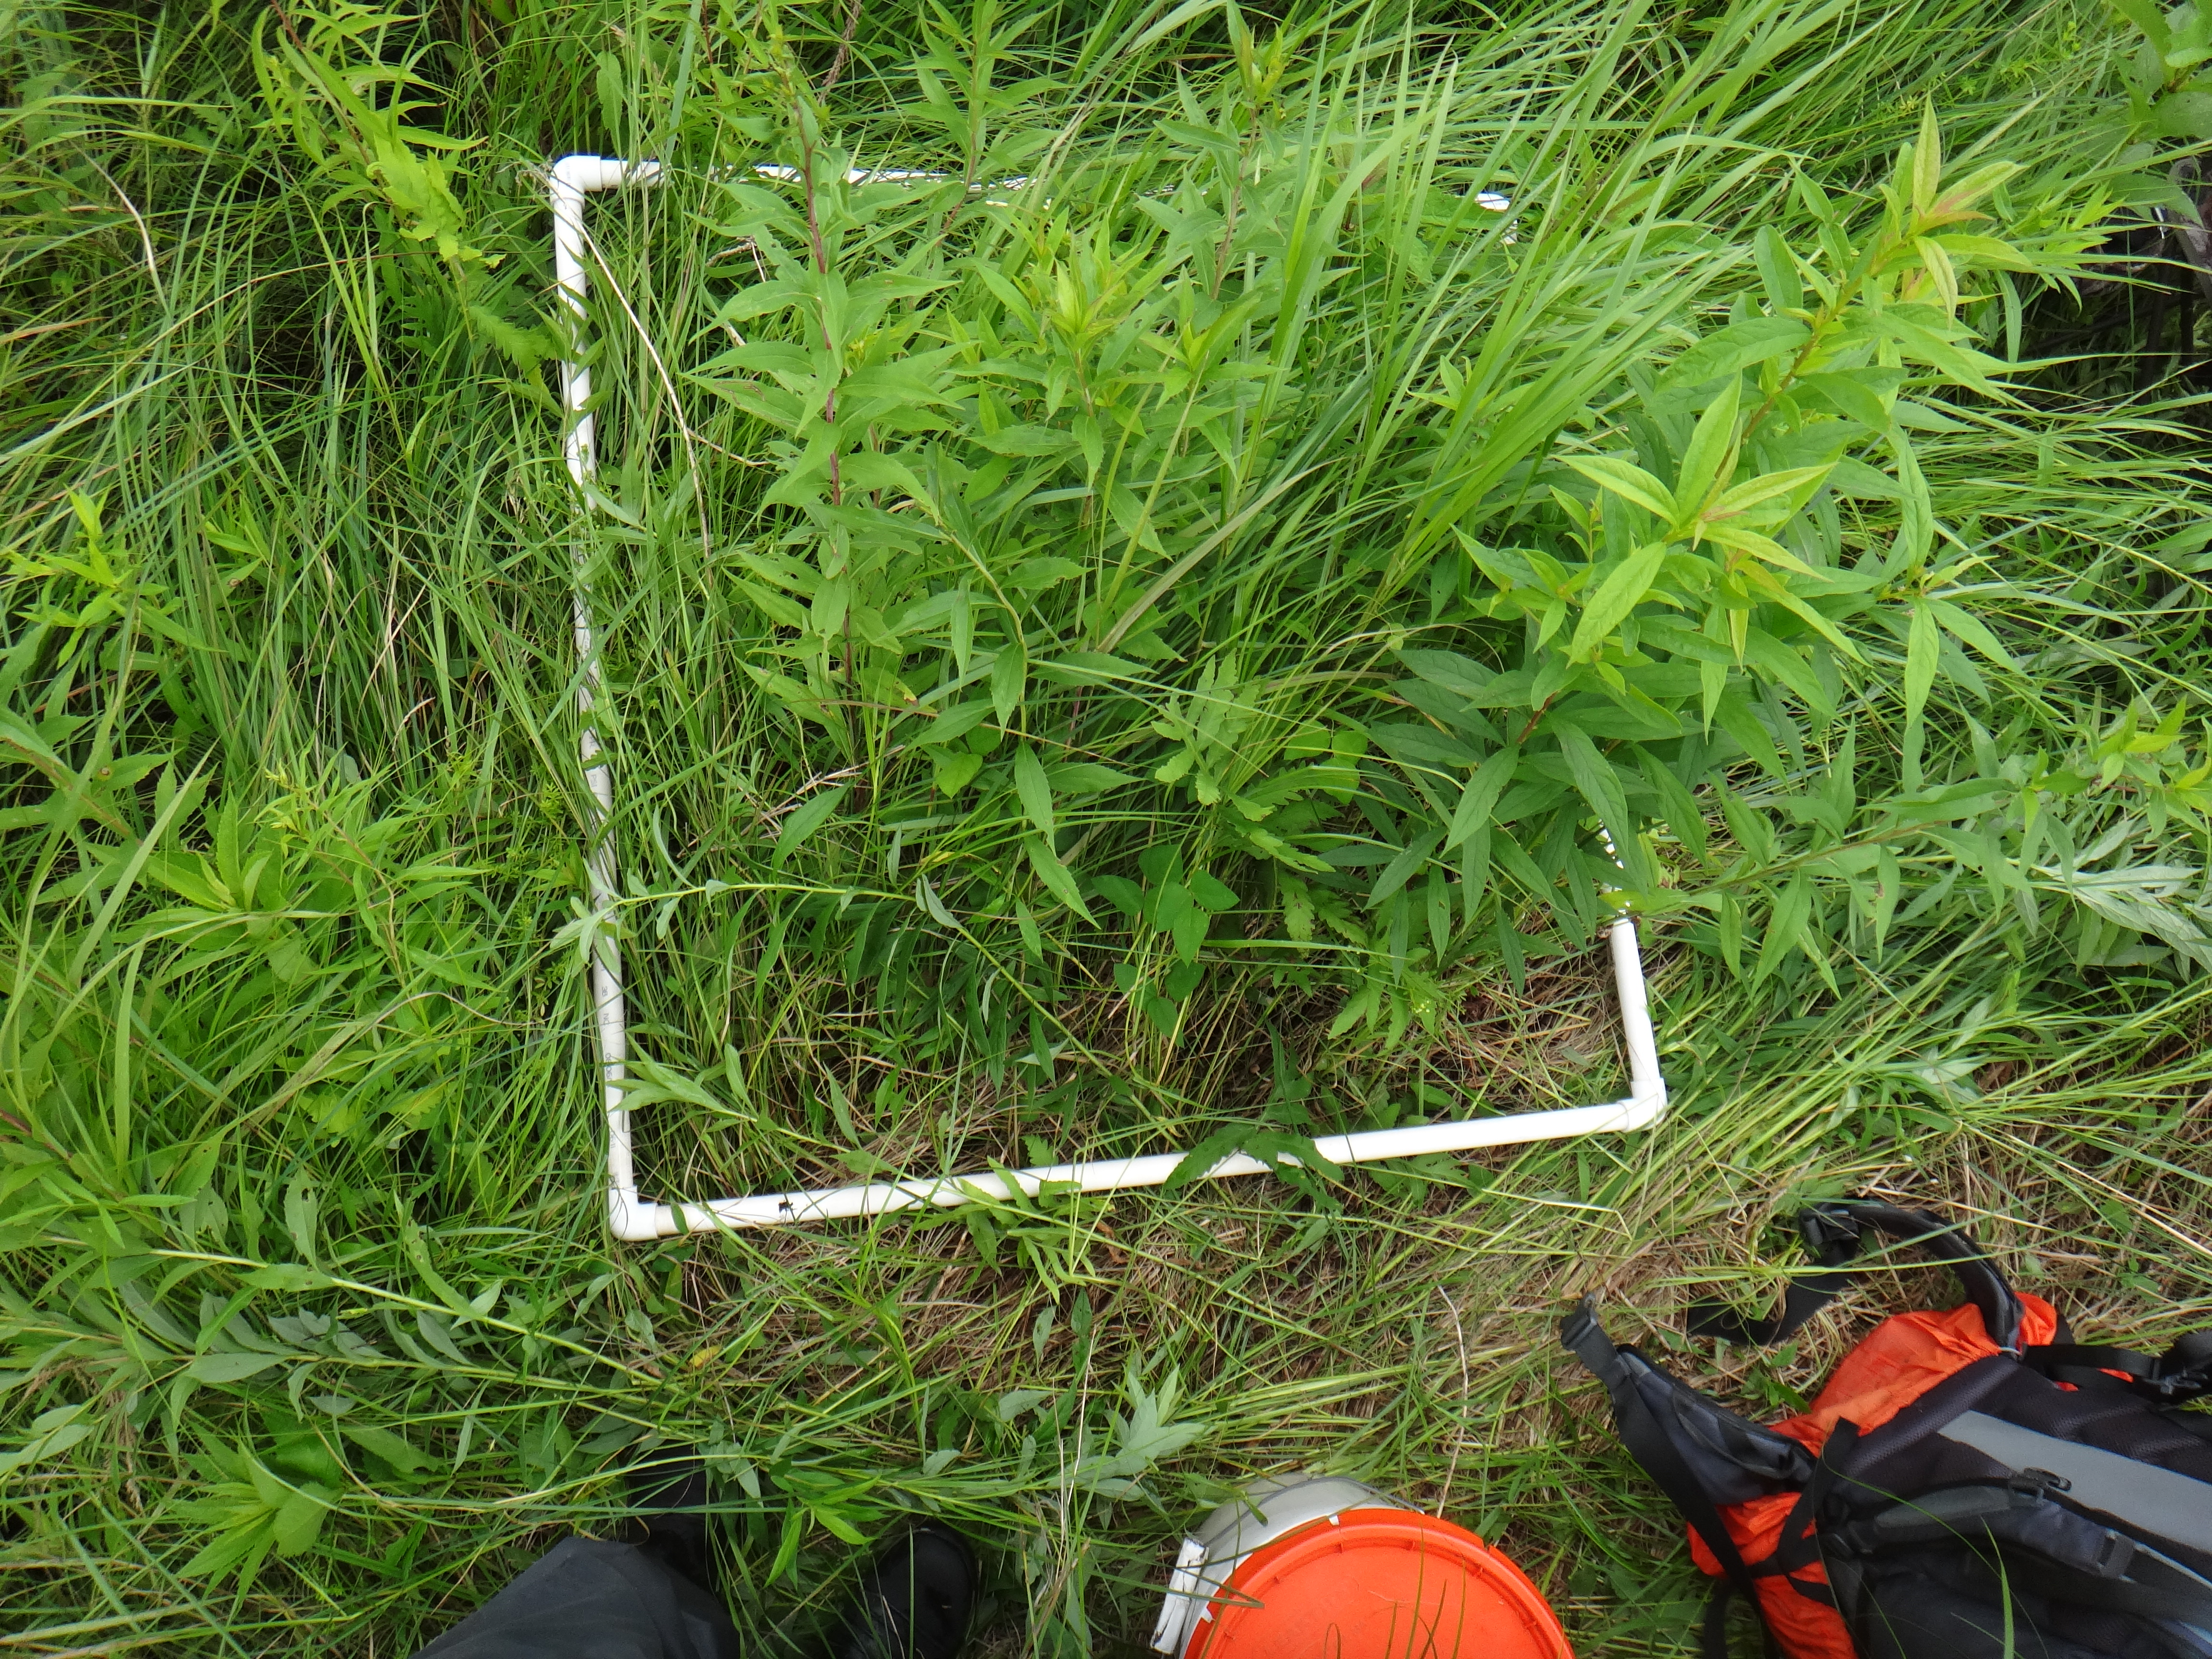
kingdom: Plantae
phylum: Tracheophyta
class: Magnoliopsida
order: Cornales
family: Cornaceae
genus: Cornus
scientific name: Cornus foemina
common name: Swamp dogwood
